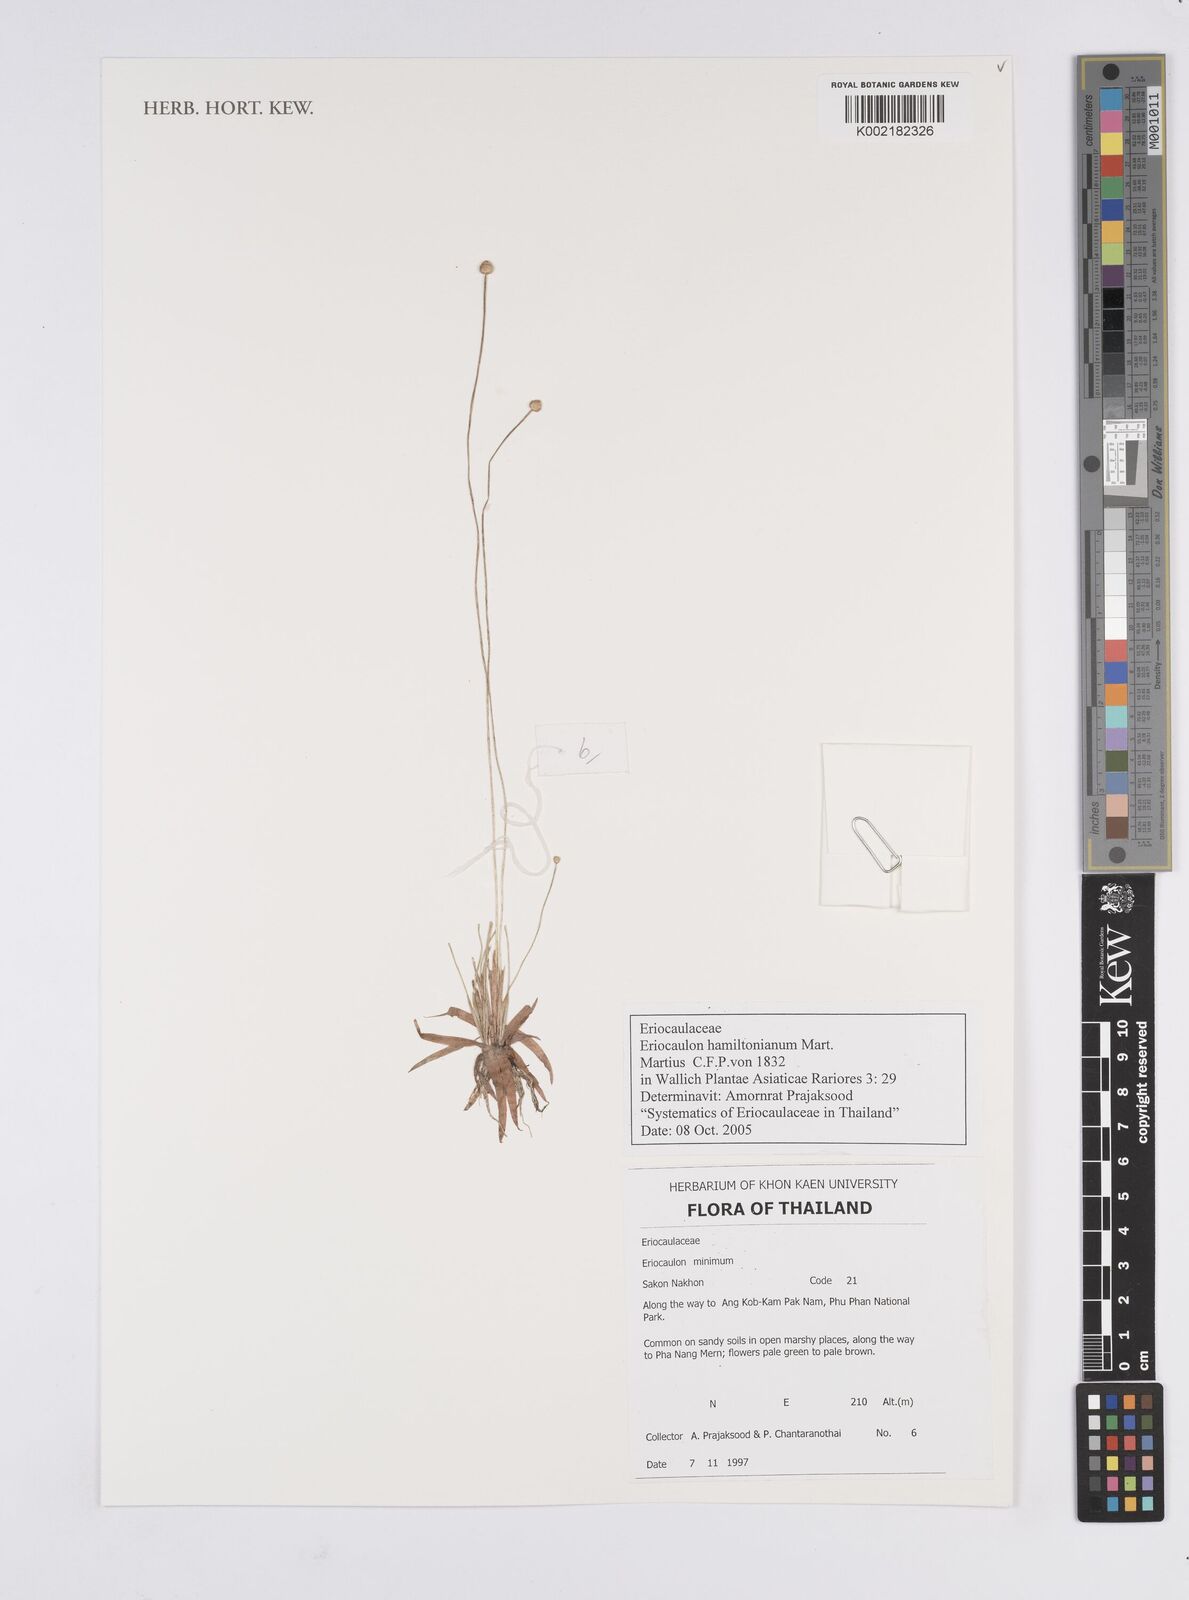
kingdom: Plantae
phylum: Tracheophyta
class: Liliopsida
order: Poales
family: Eriocaulaceae
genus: Eriocaulon
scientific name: Eriocaulon hamiltonianum
